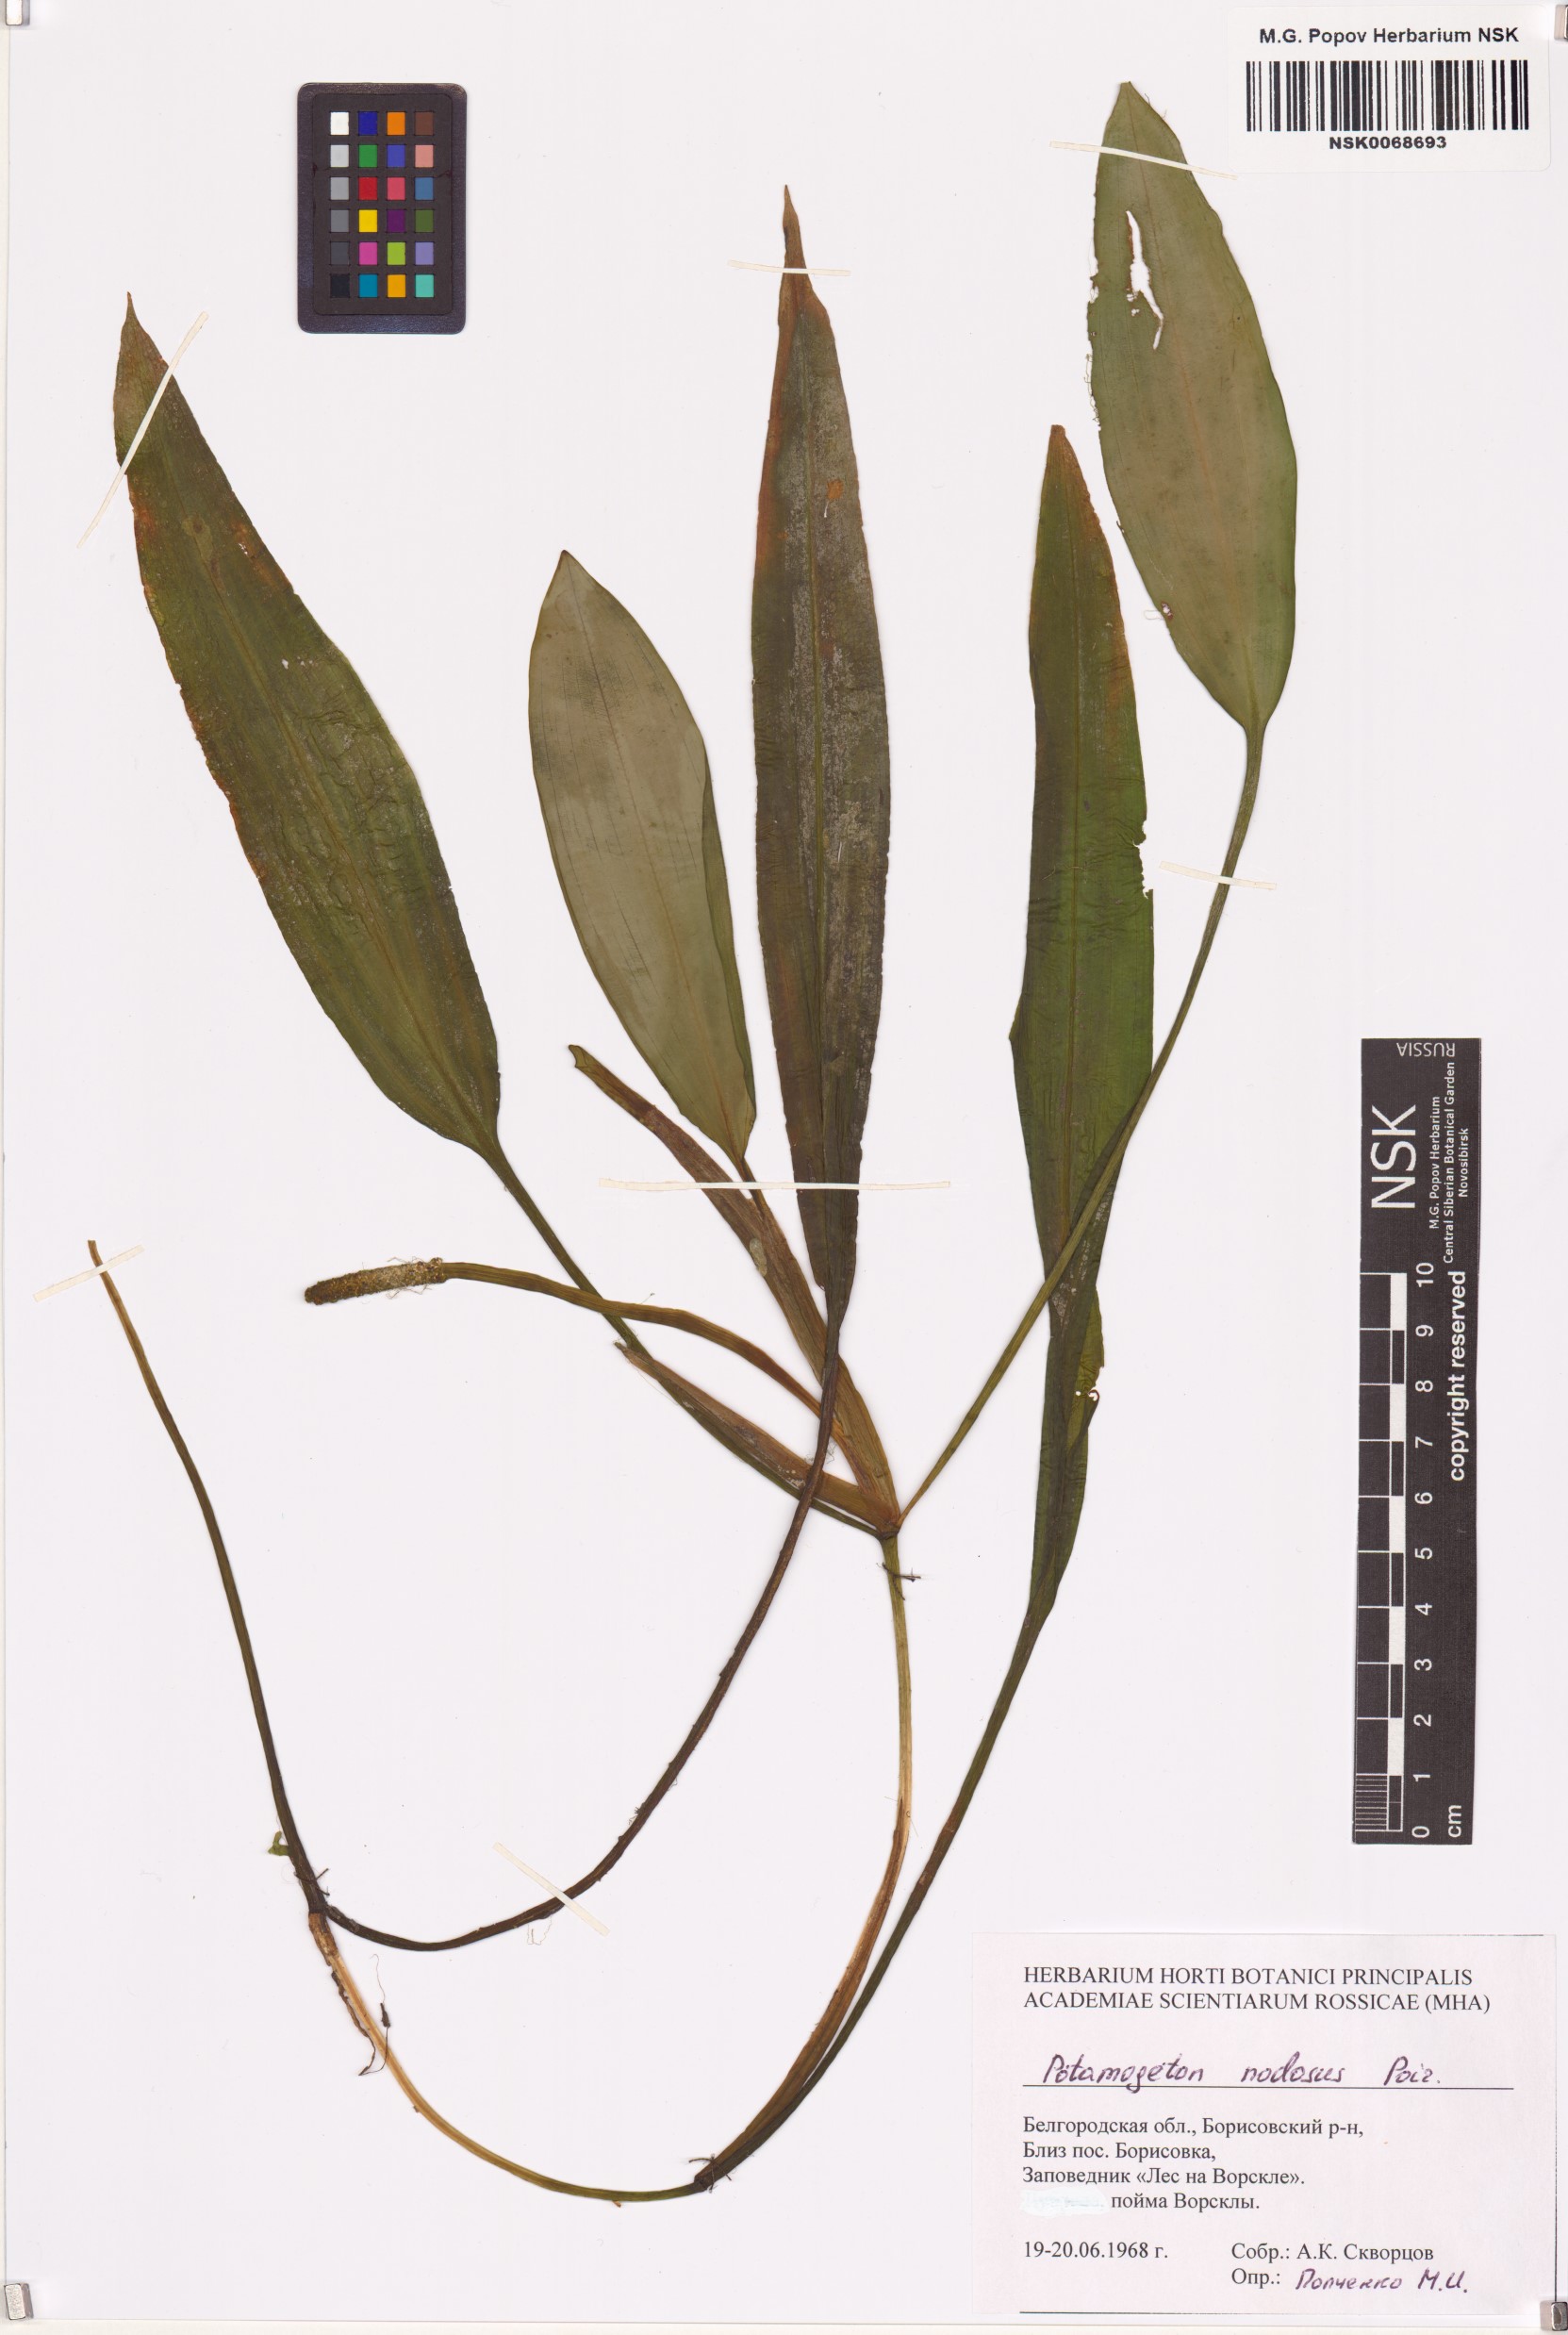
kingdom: Plantae
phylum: Tracheophyta
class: Liliopsida
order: Alismatales
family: Potamogetonaceae
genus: Potamogeton
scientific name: Potamogeton nodosus
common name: Loddon pondweed
